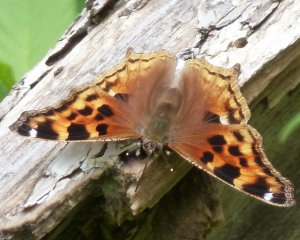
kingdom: Animalia
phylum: Arthropoda
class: Insecta
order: Lepidoptera
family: Nymphalidae
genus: Polygonia
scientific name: Polygonia vaualbum
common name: Compton Tortoiseshell
